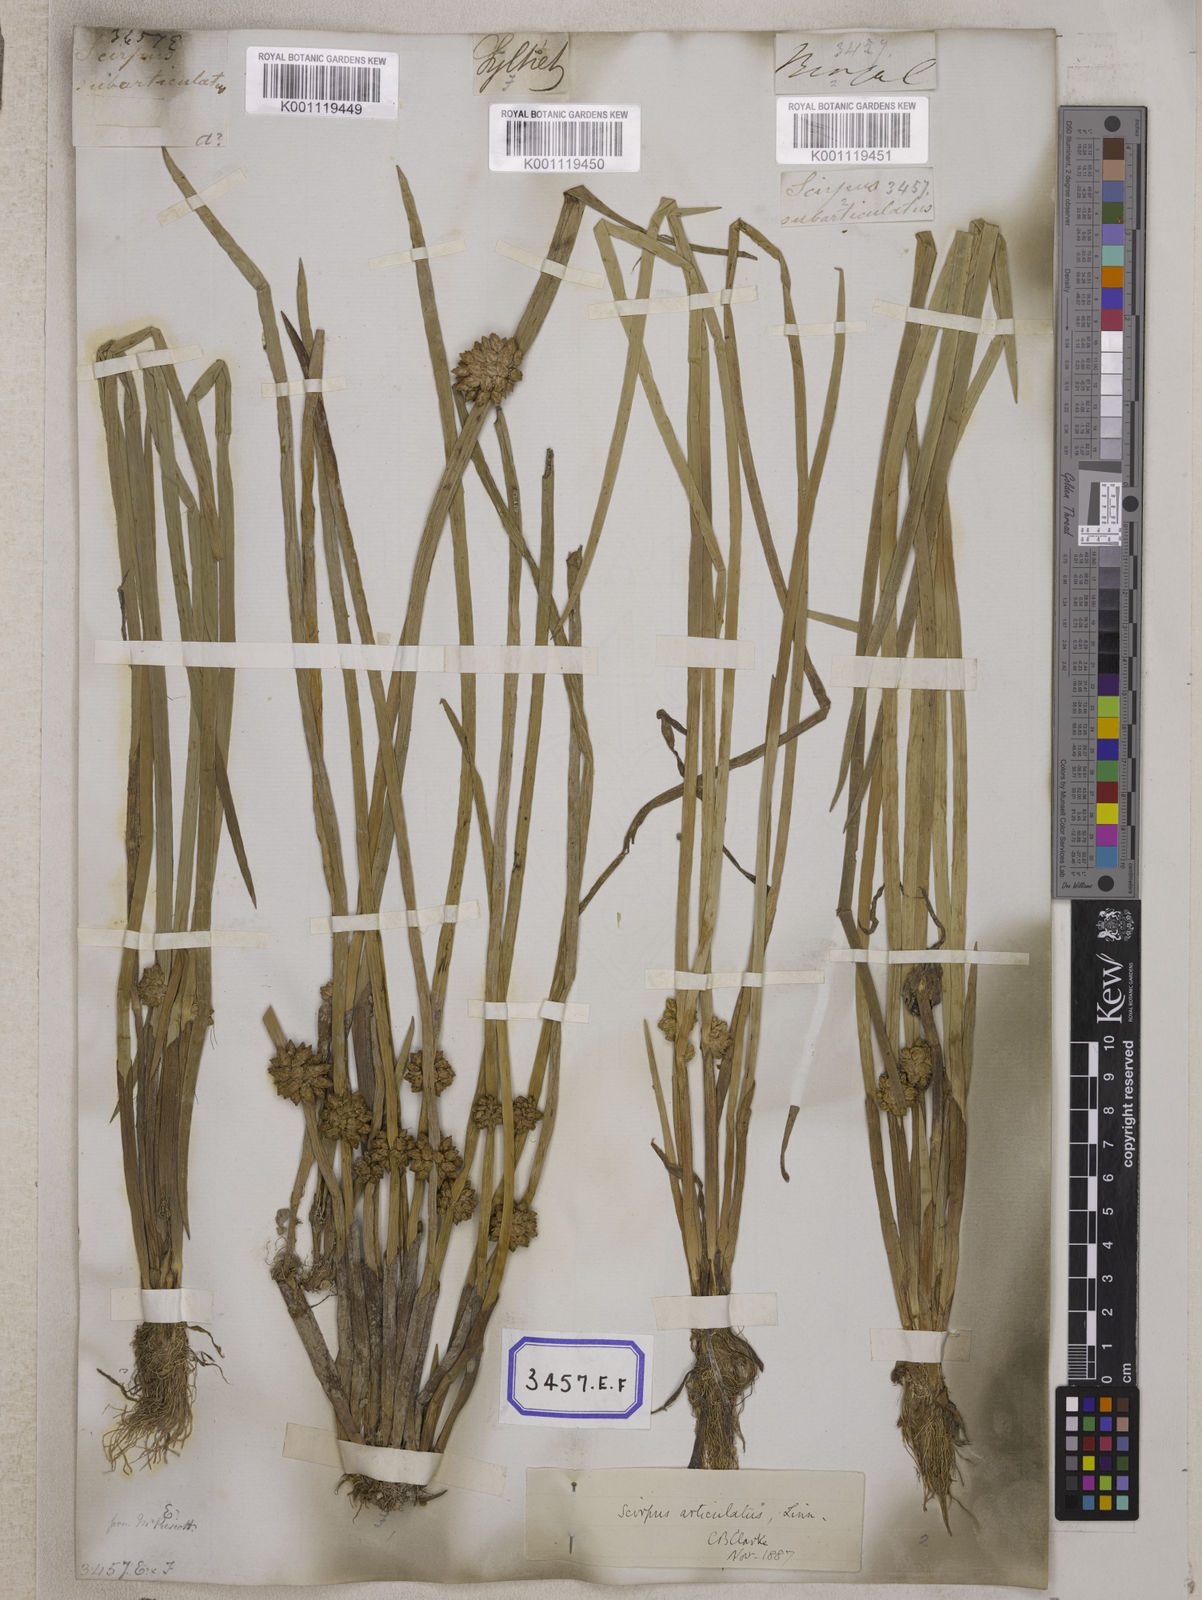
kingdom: Plantae
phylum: Tracheophyta
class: Liliopsida
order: Poales
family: Cyperaceae
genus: Scirpus
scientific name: Scirpus
